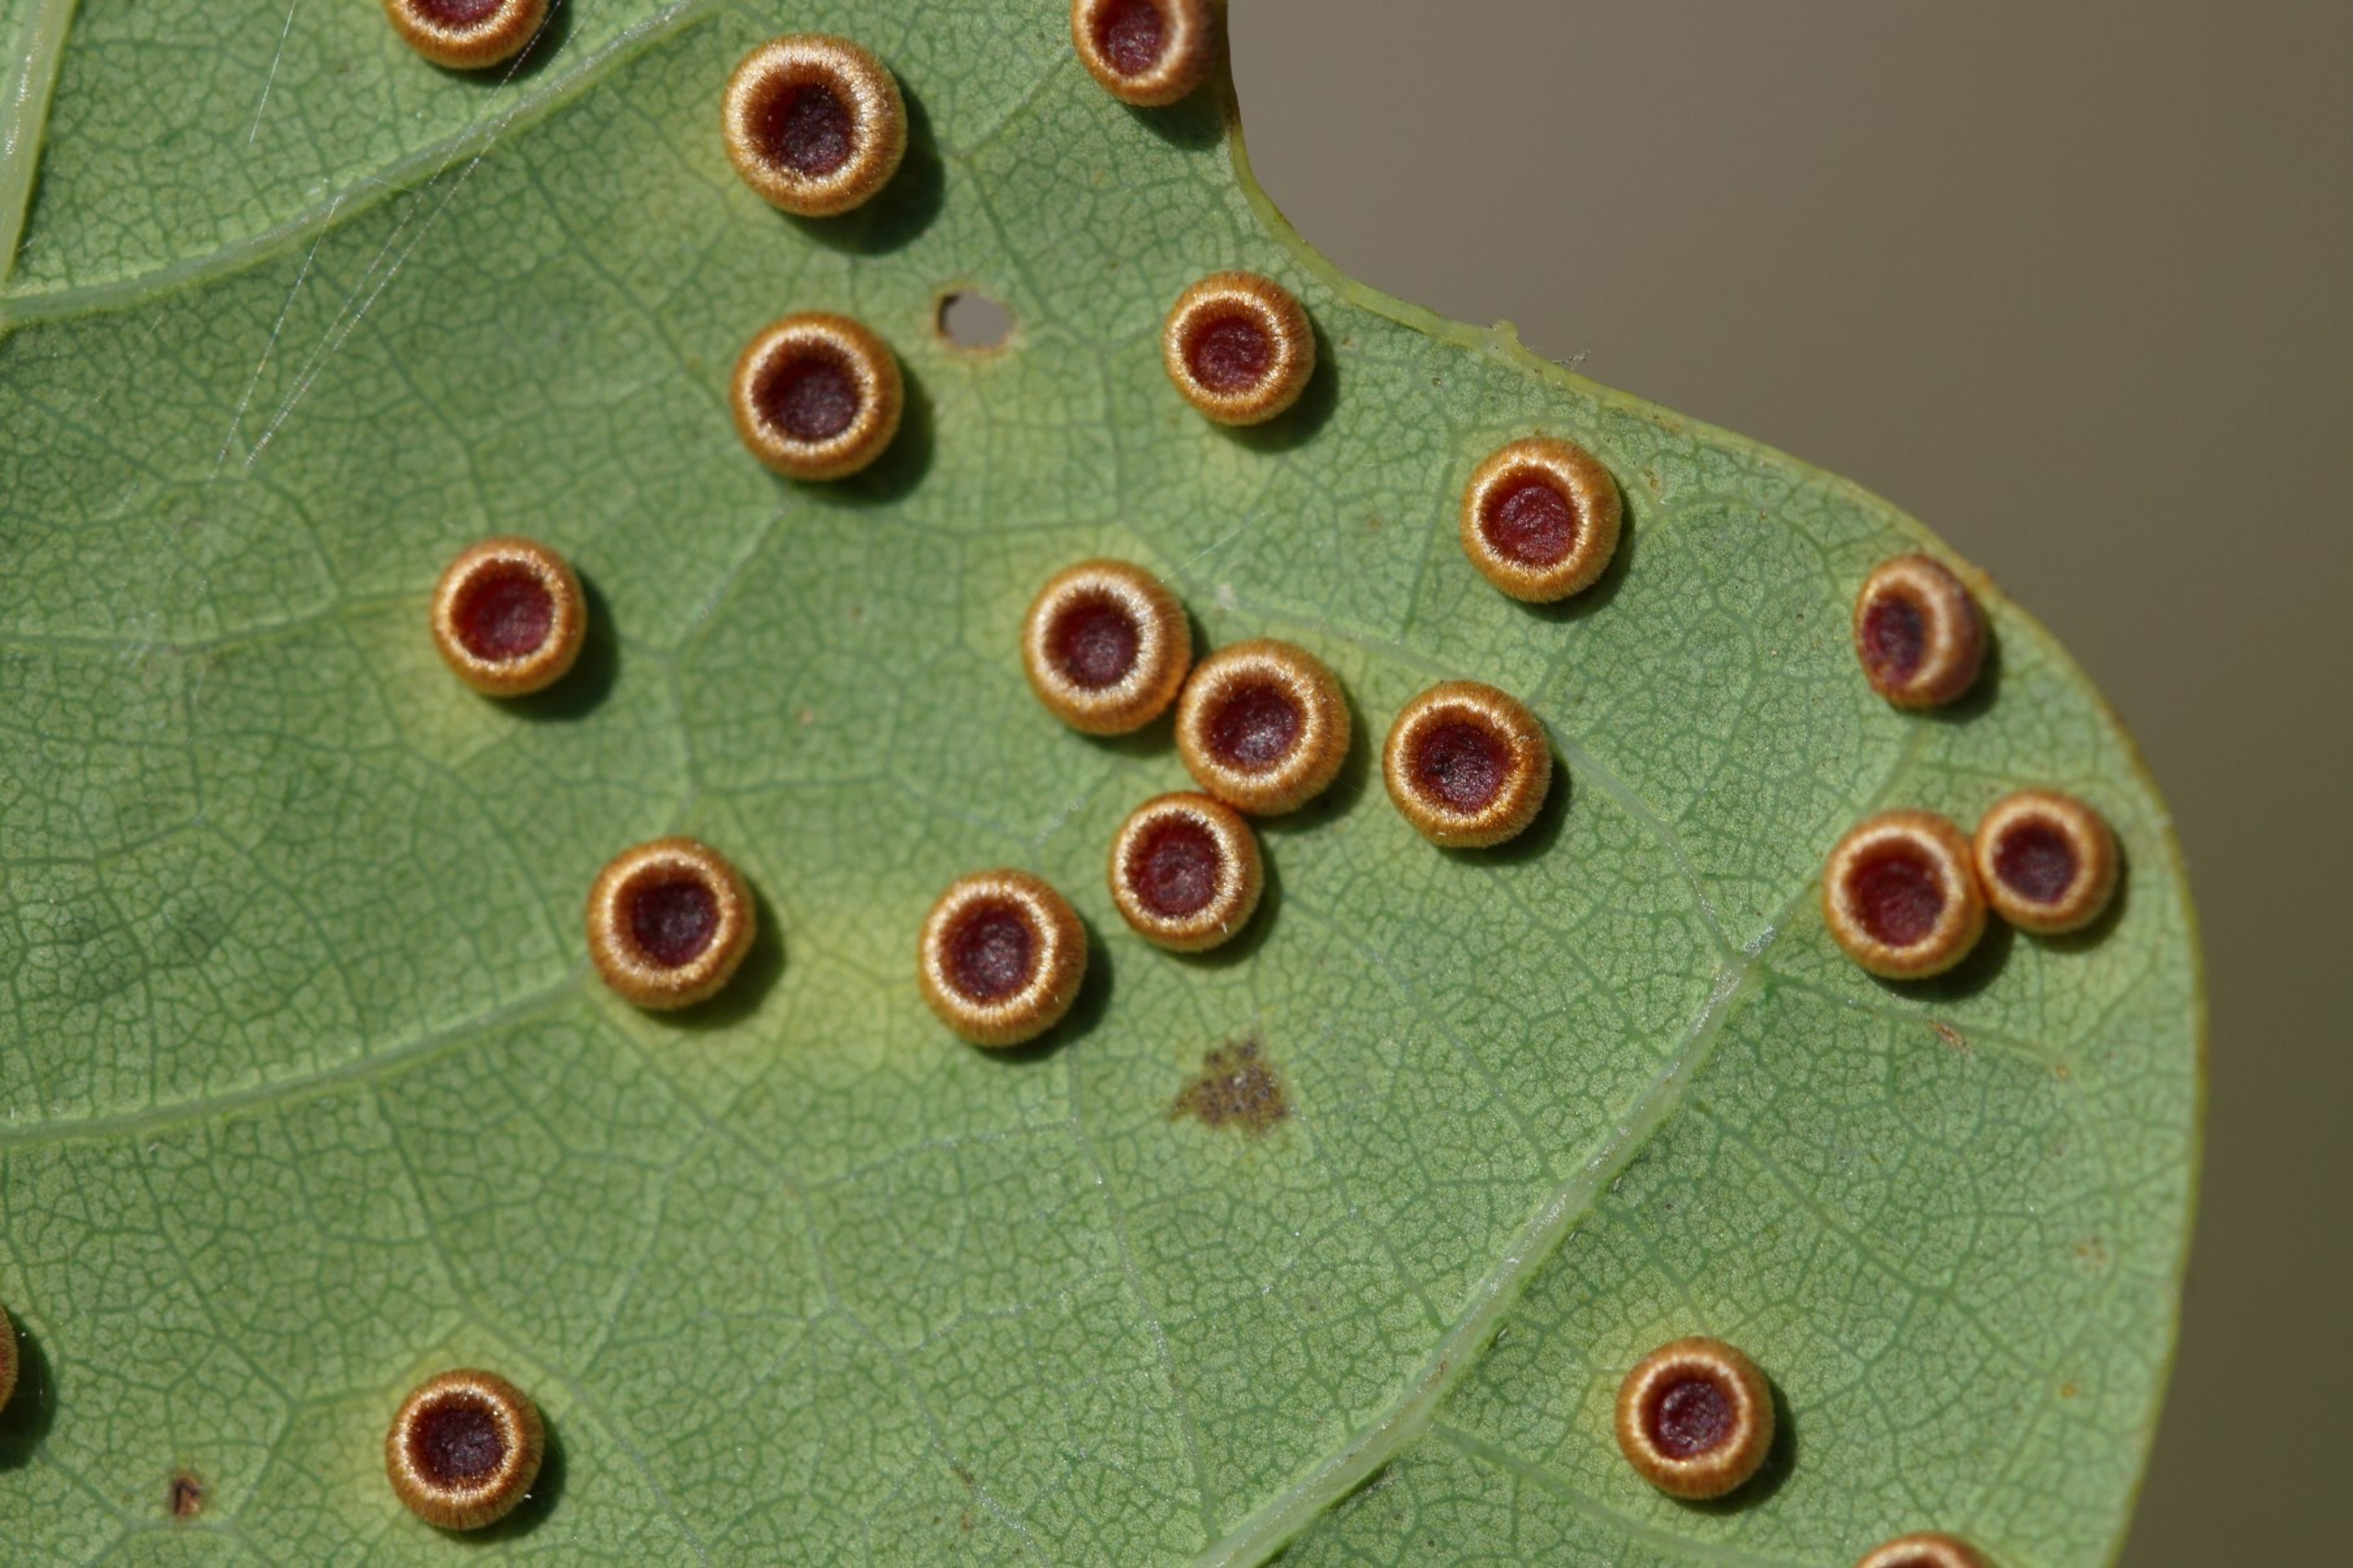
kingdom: Animalia
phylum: Arthropoda
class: Insecta
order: Hymenoptera
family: Cynipidae
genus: Neuroterus
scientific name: Neuroterus numismalis
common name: Knapgalhveps
